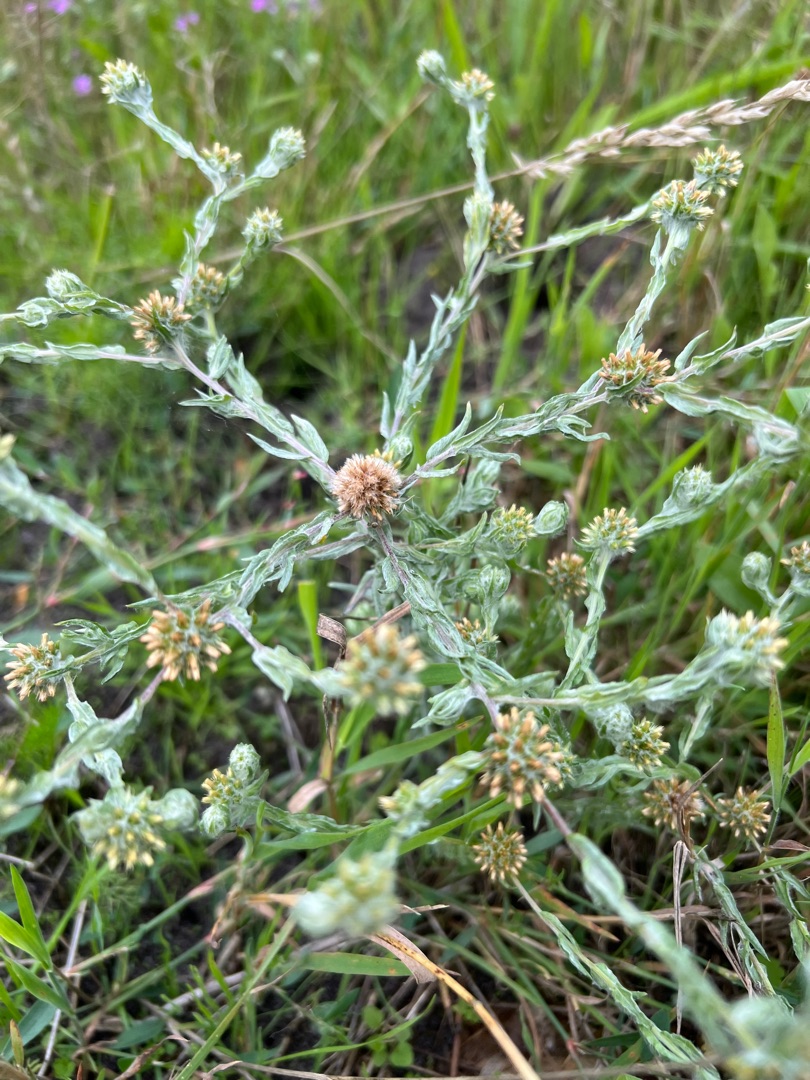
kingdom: Plantae
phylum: Tracheophyta
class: Magnoliopsida
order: Asterales
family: Asteraceae
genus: Filago
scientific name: Filago germanica
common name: Kugle-museurt
